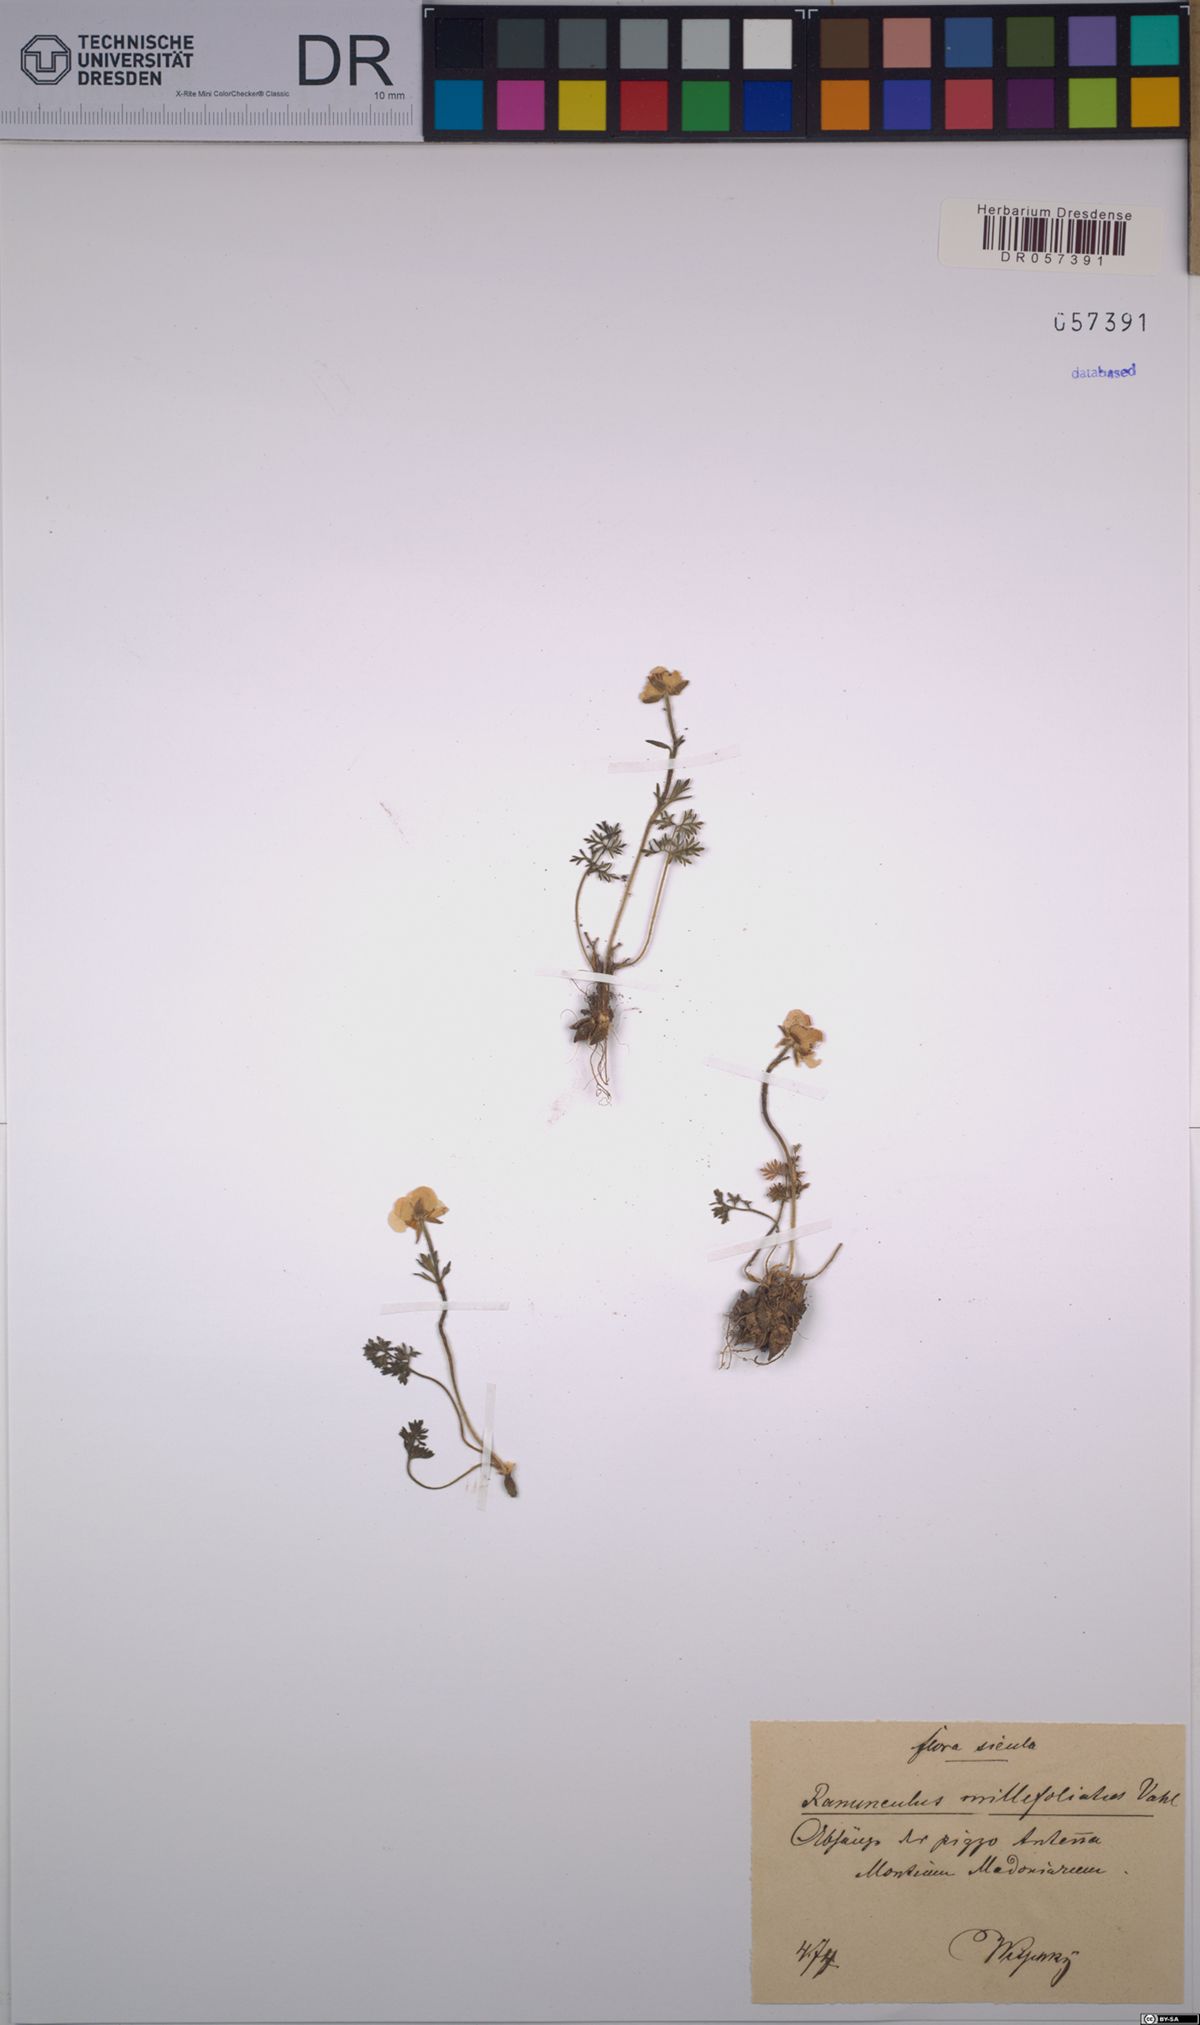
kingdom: Plantae
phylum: Tracheophyta
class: Magnoliopsida
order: Ranunculales
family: Ranunculaceae
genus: Ranunculus
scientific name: Ranunculus millefoliatus
